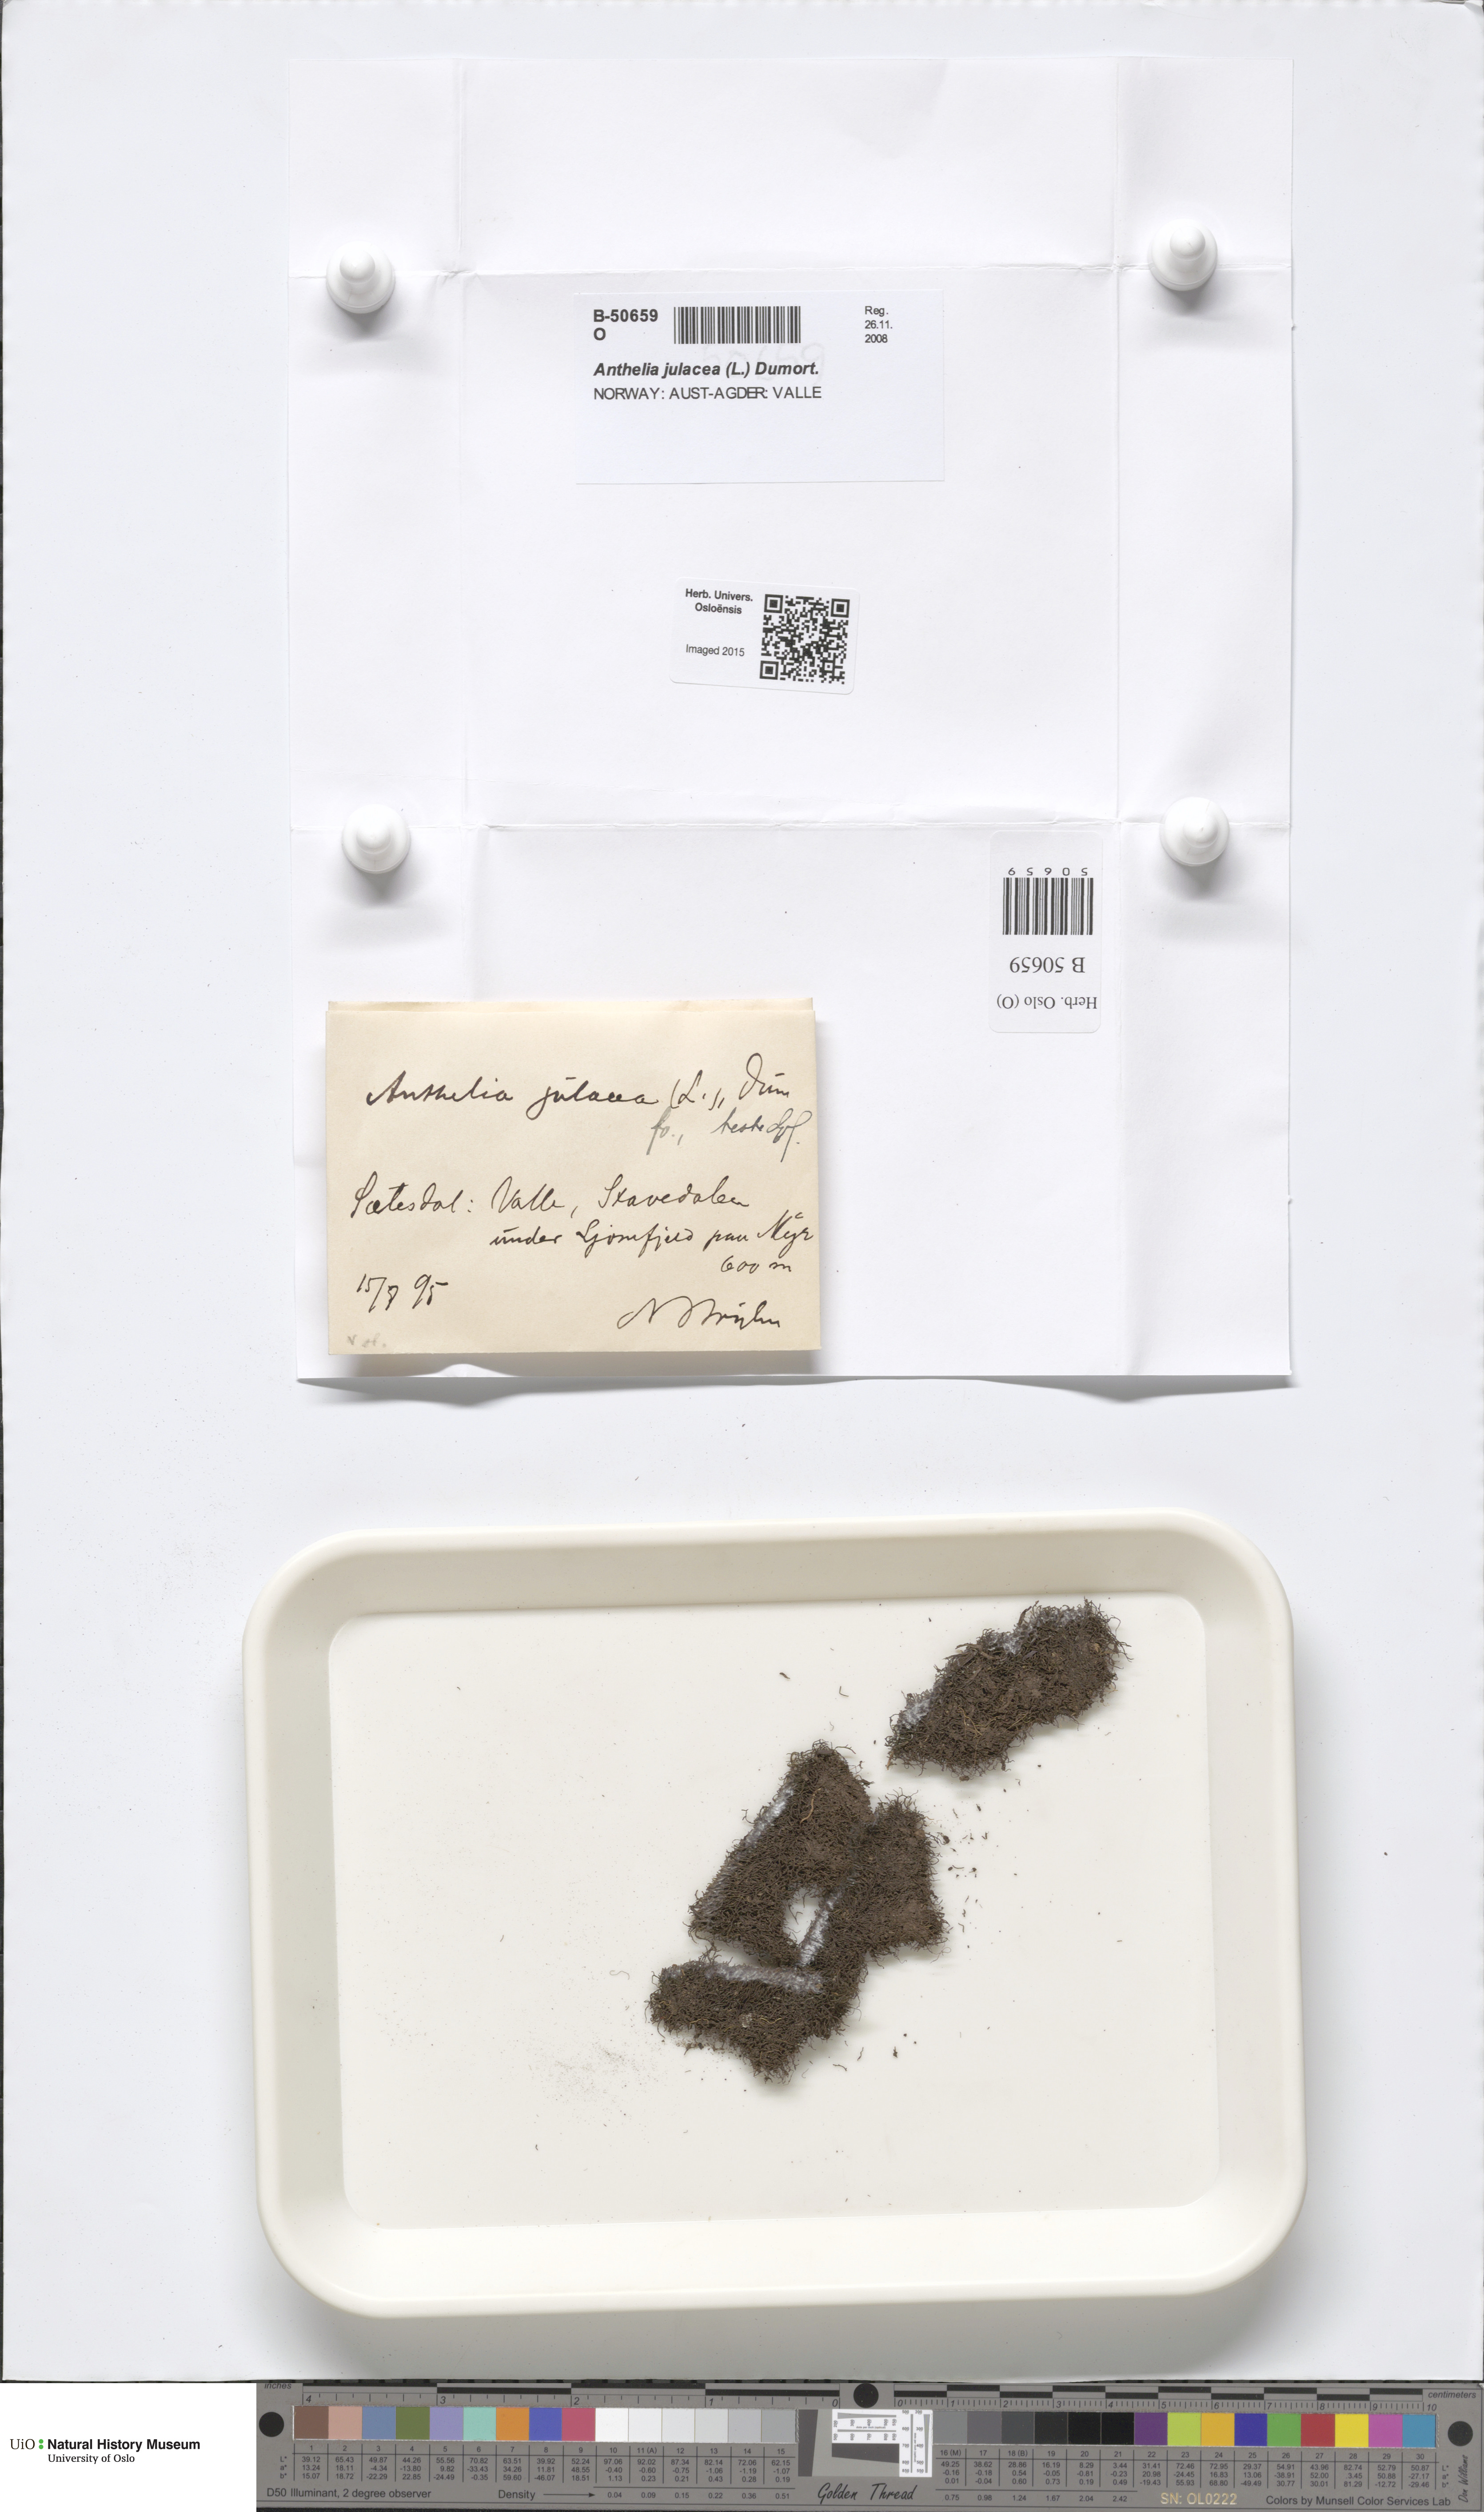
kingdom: Plantae
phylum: Marchantiophyta
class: Jungermanniopsida
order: Jungermanniales
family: Antheliaceae
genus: Anthelia
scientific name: Anthelia julacea
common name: Alpine silverwort
